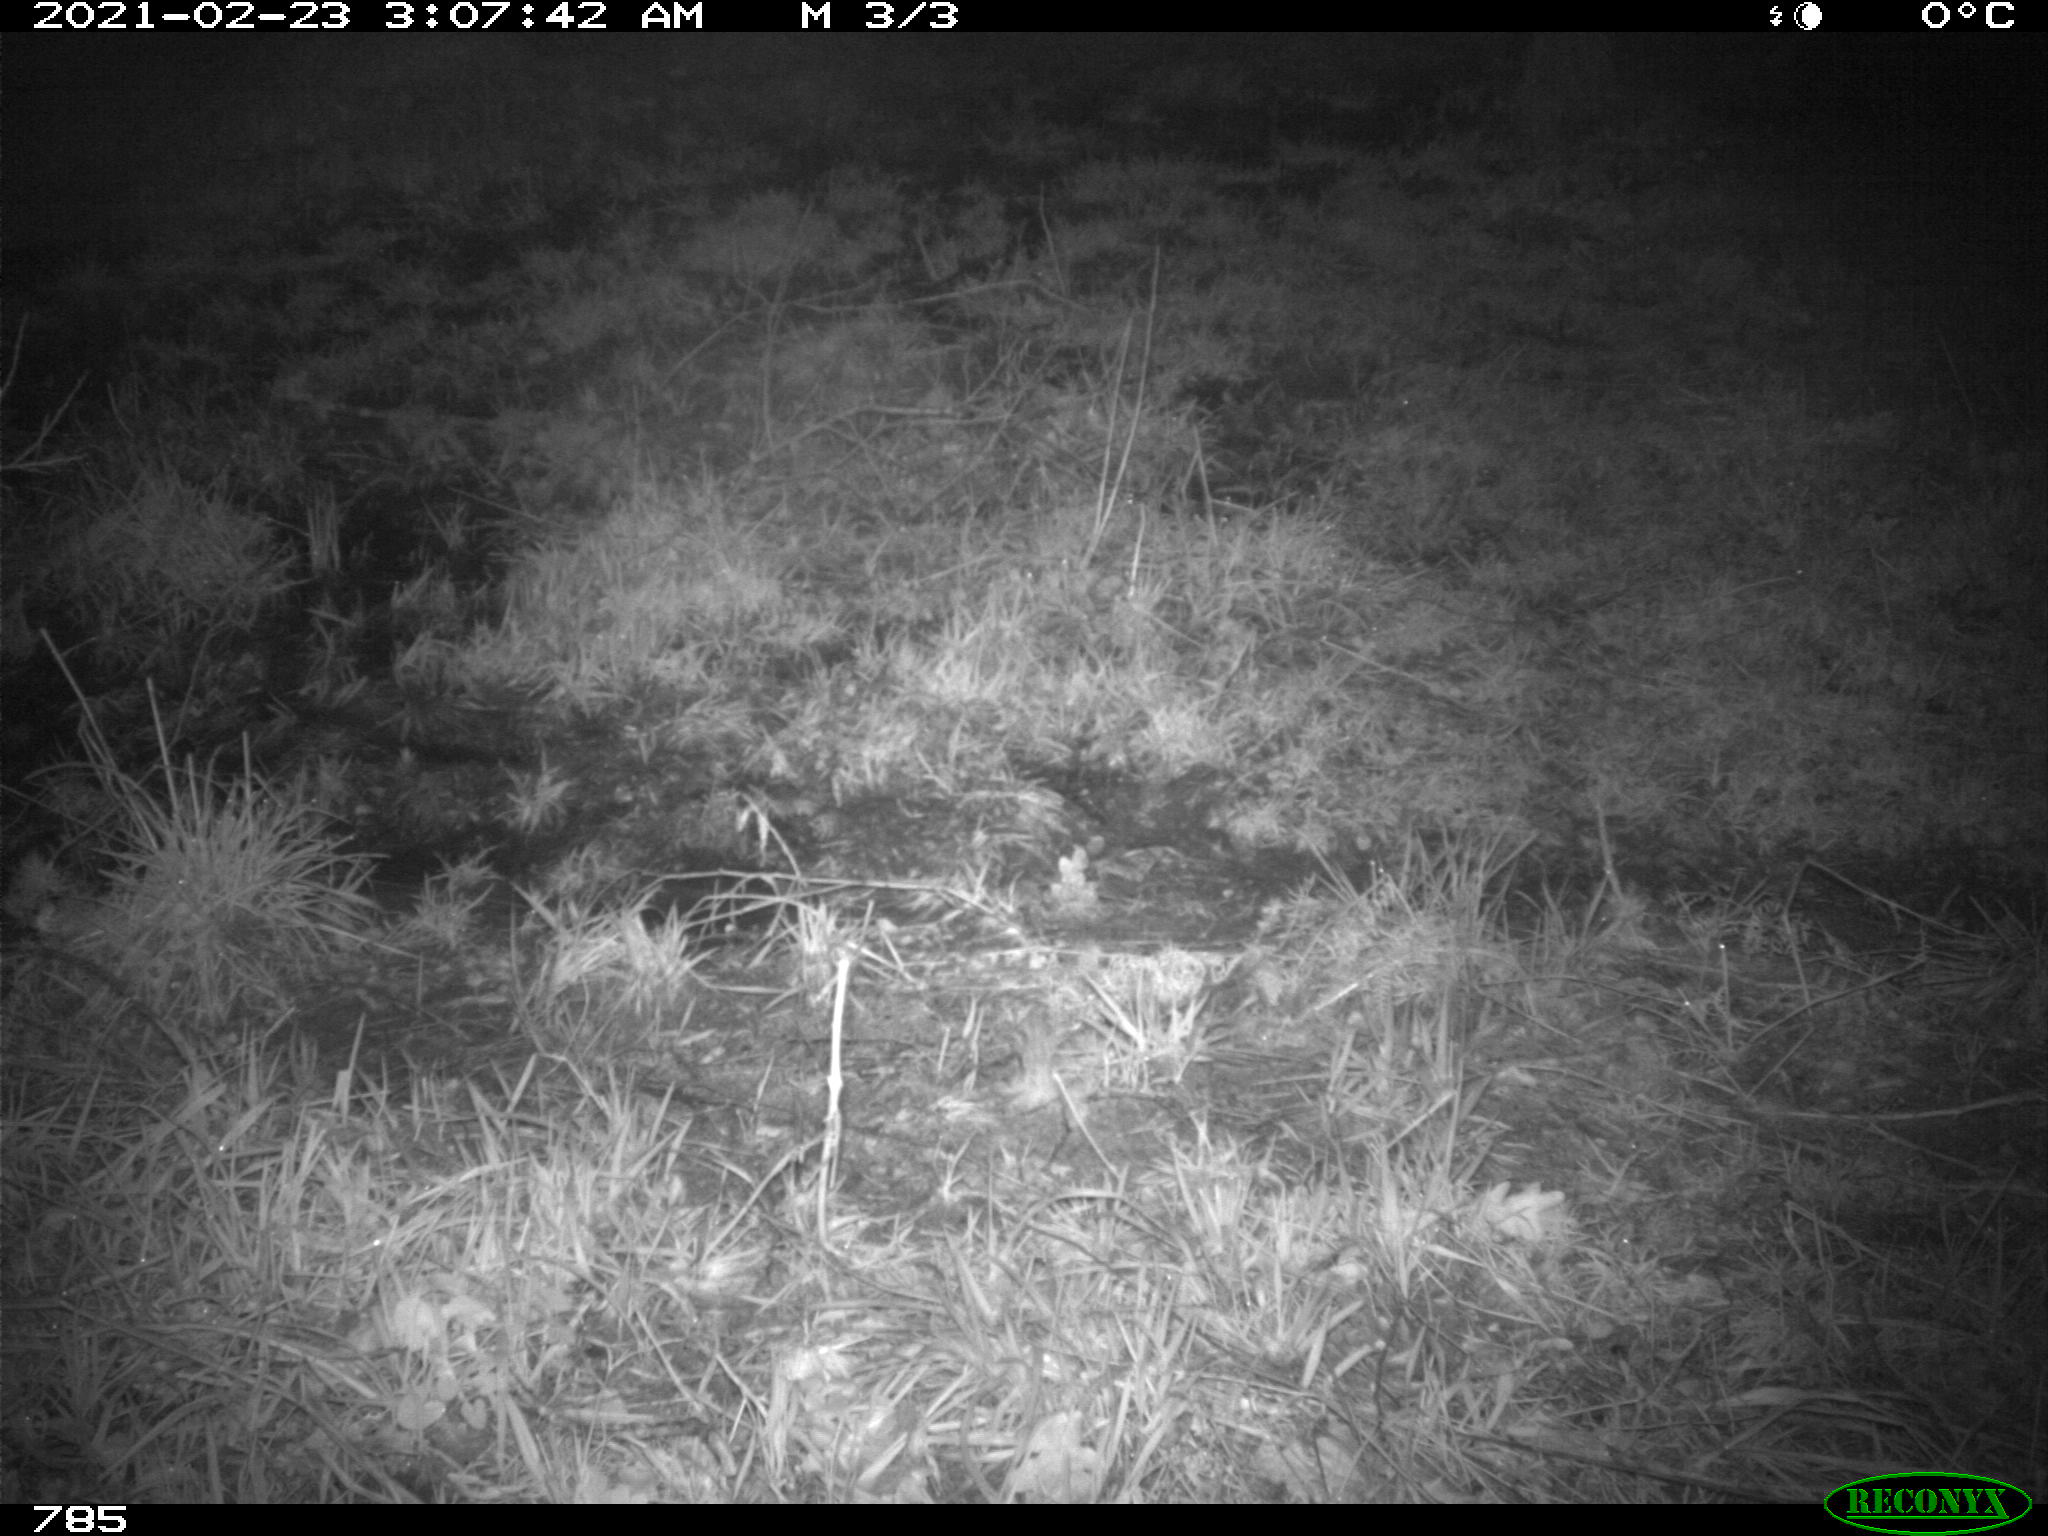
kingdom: Animalia
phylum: Chordata
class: Mammalia
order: Artiodactyla
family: Bovidae
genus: Bos
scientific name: Bos taurus
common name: Domesticated cattle
